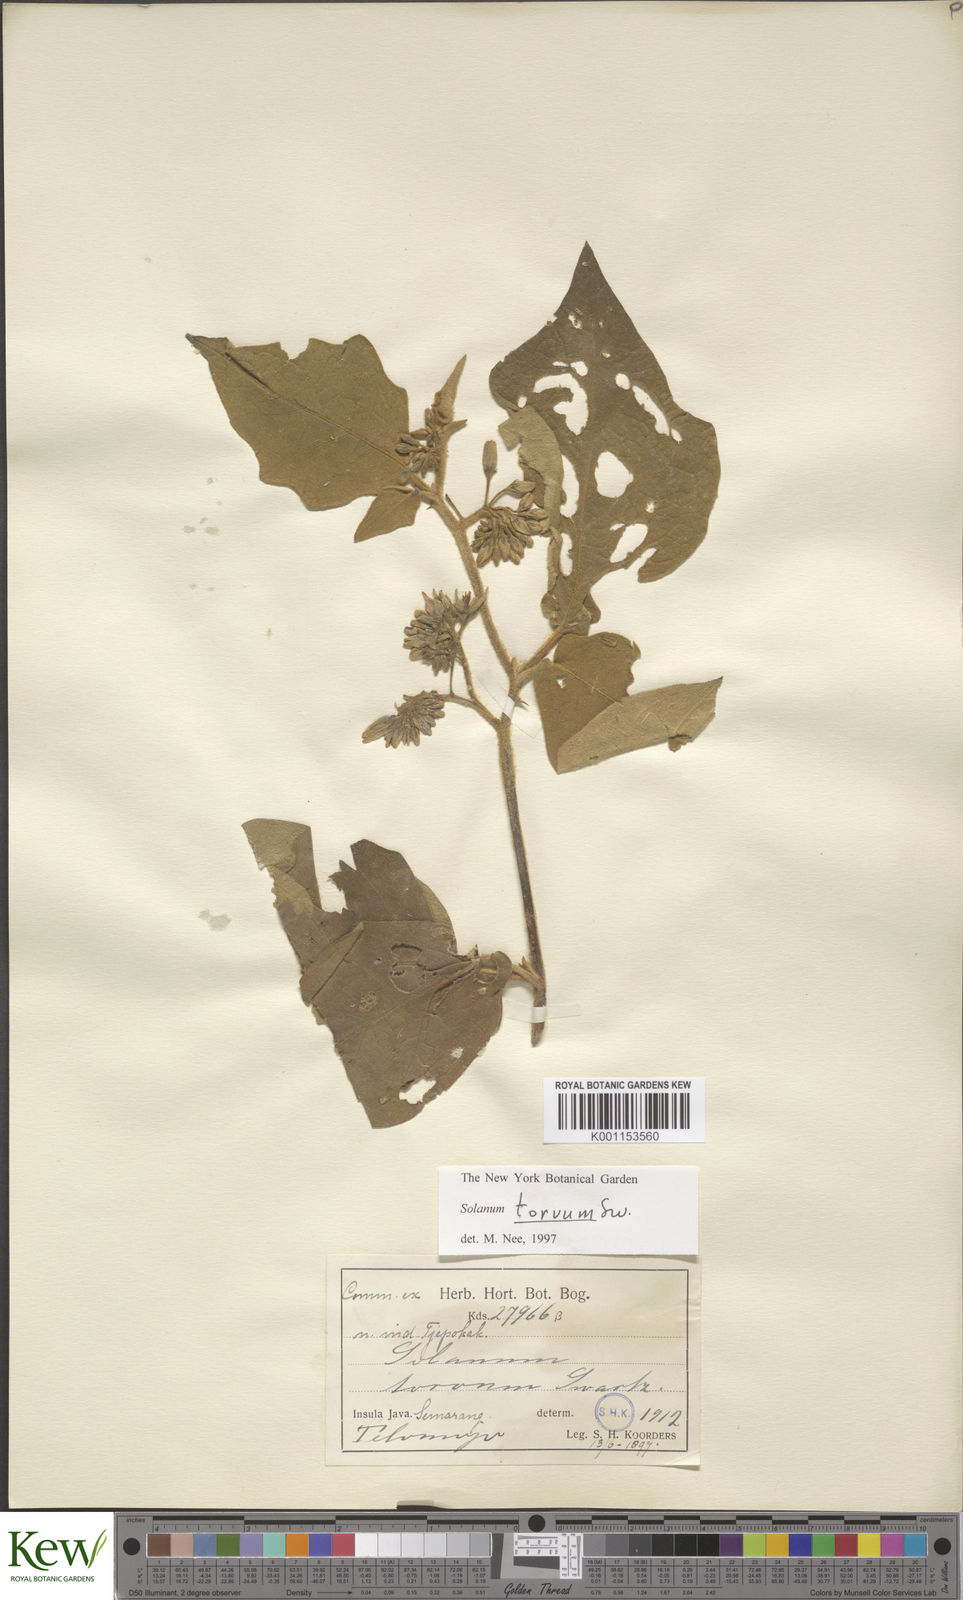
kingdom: Plantae
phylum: Tracheophyta
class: Magnoliopsida
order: Solanales
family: Solanaceae
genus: Solanum
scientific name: Solanum torvum
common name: Turkey berry
